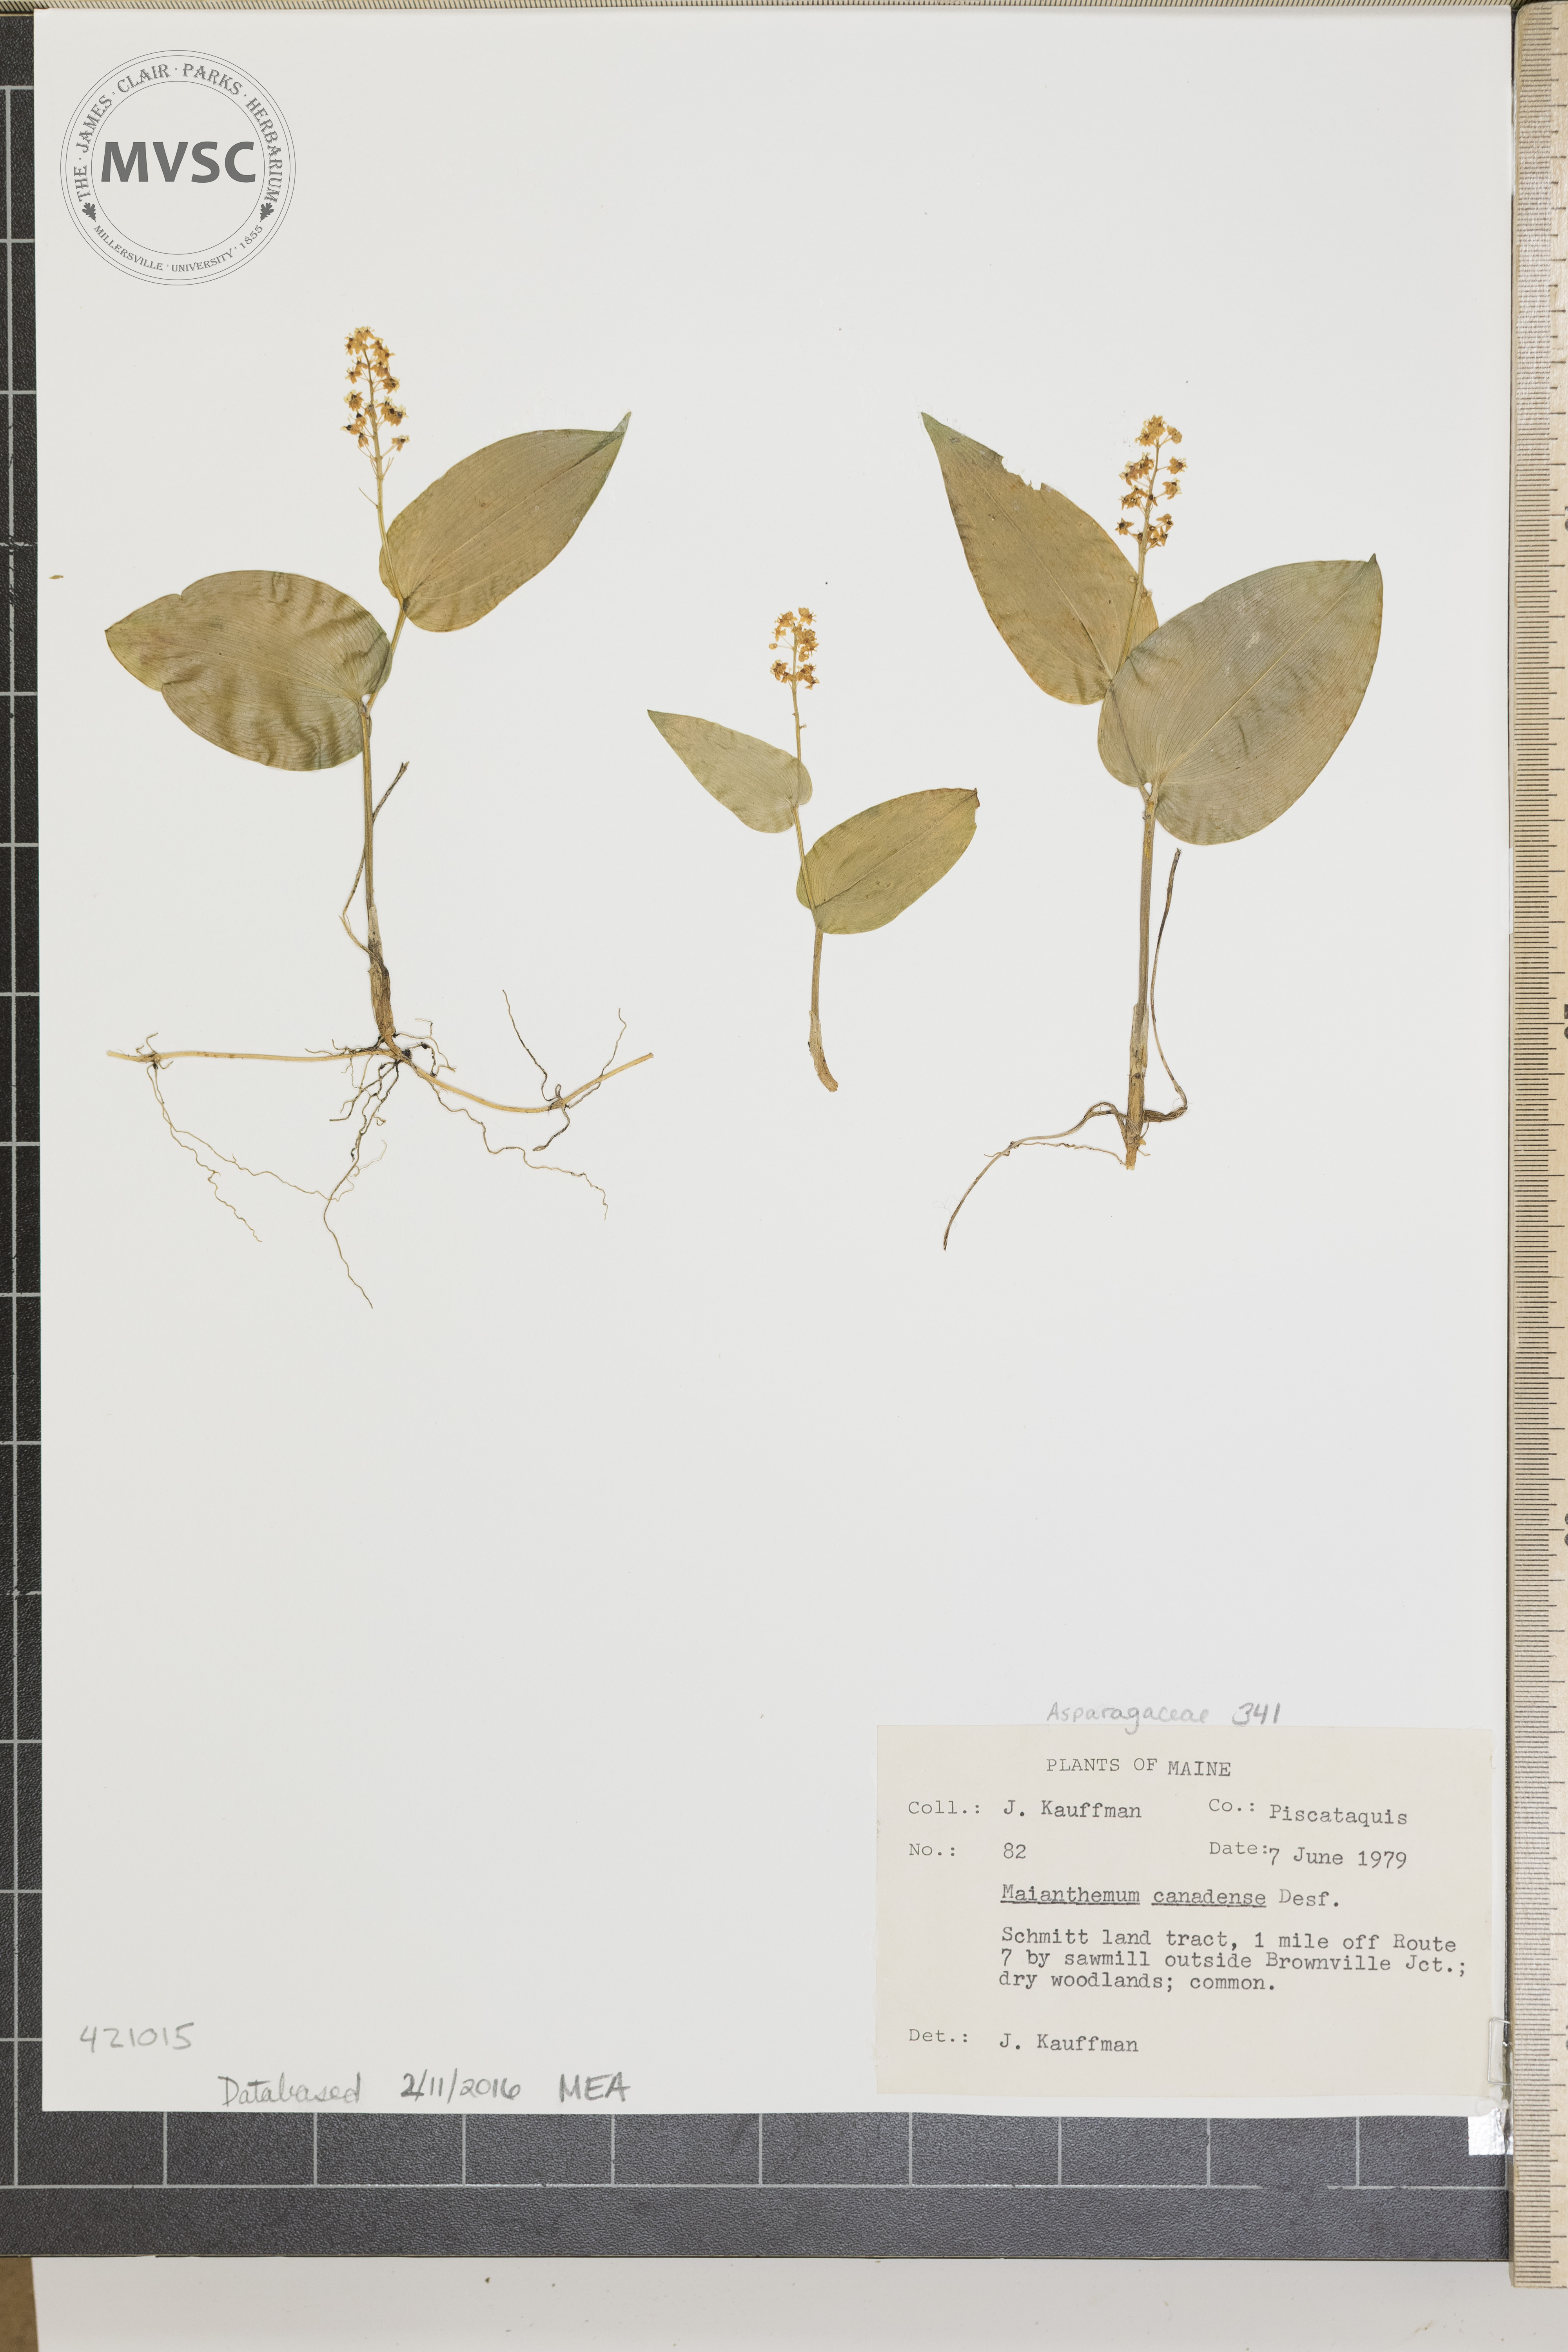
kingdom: Plantae
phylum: Tracheophyta
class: Liliopsida
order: Asparagales
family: Asparagaceae
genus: Maianthemum
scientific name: Maianthemum canadense
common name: Canadian may-lily
